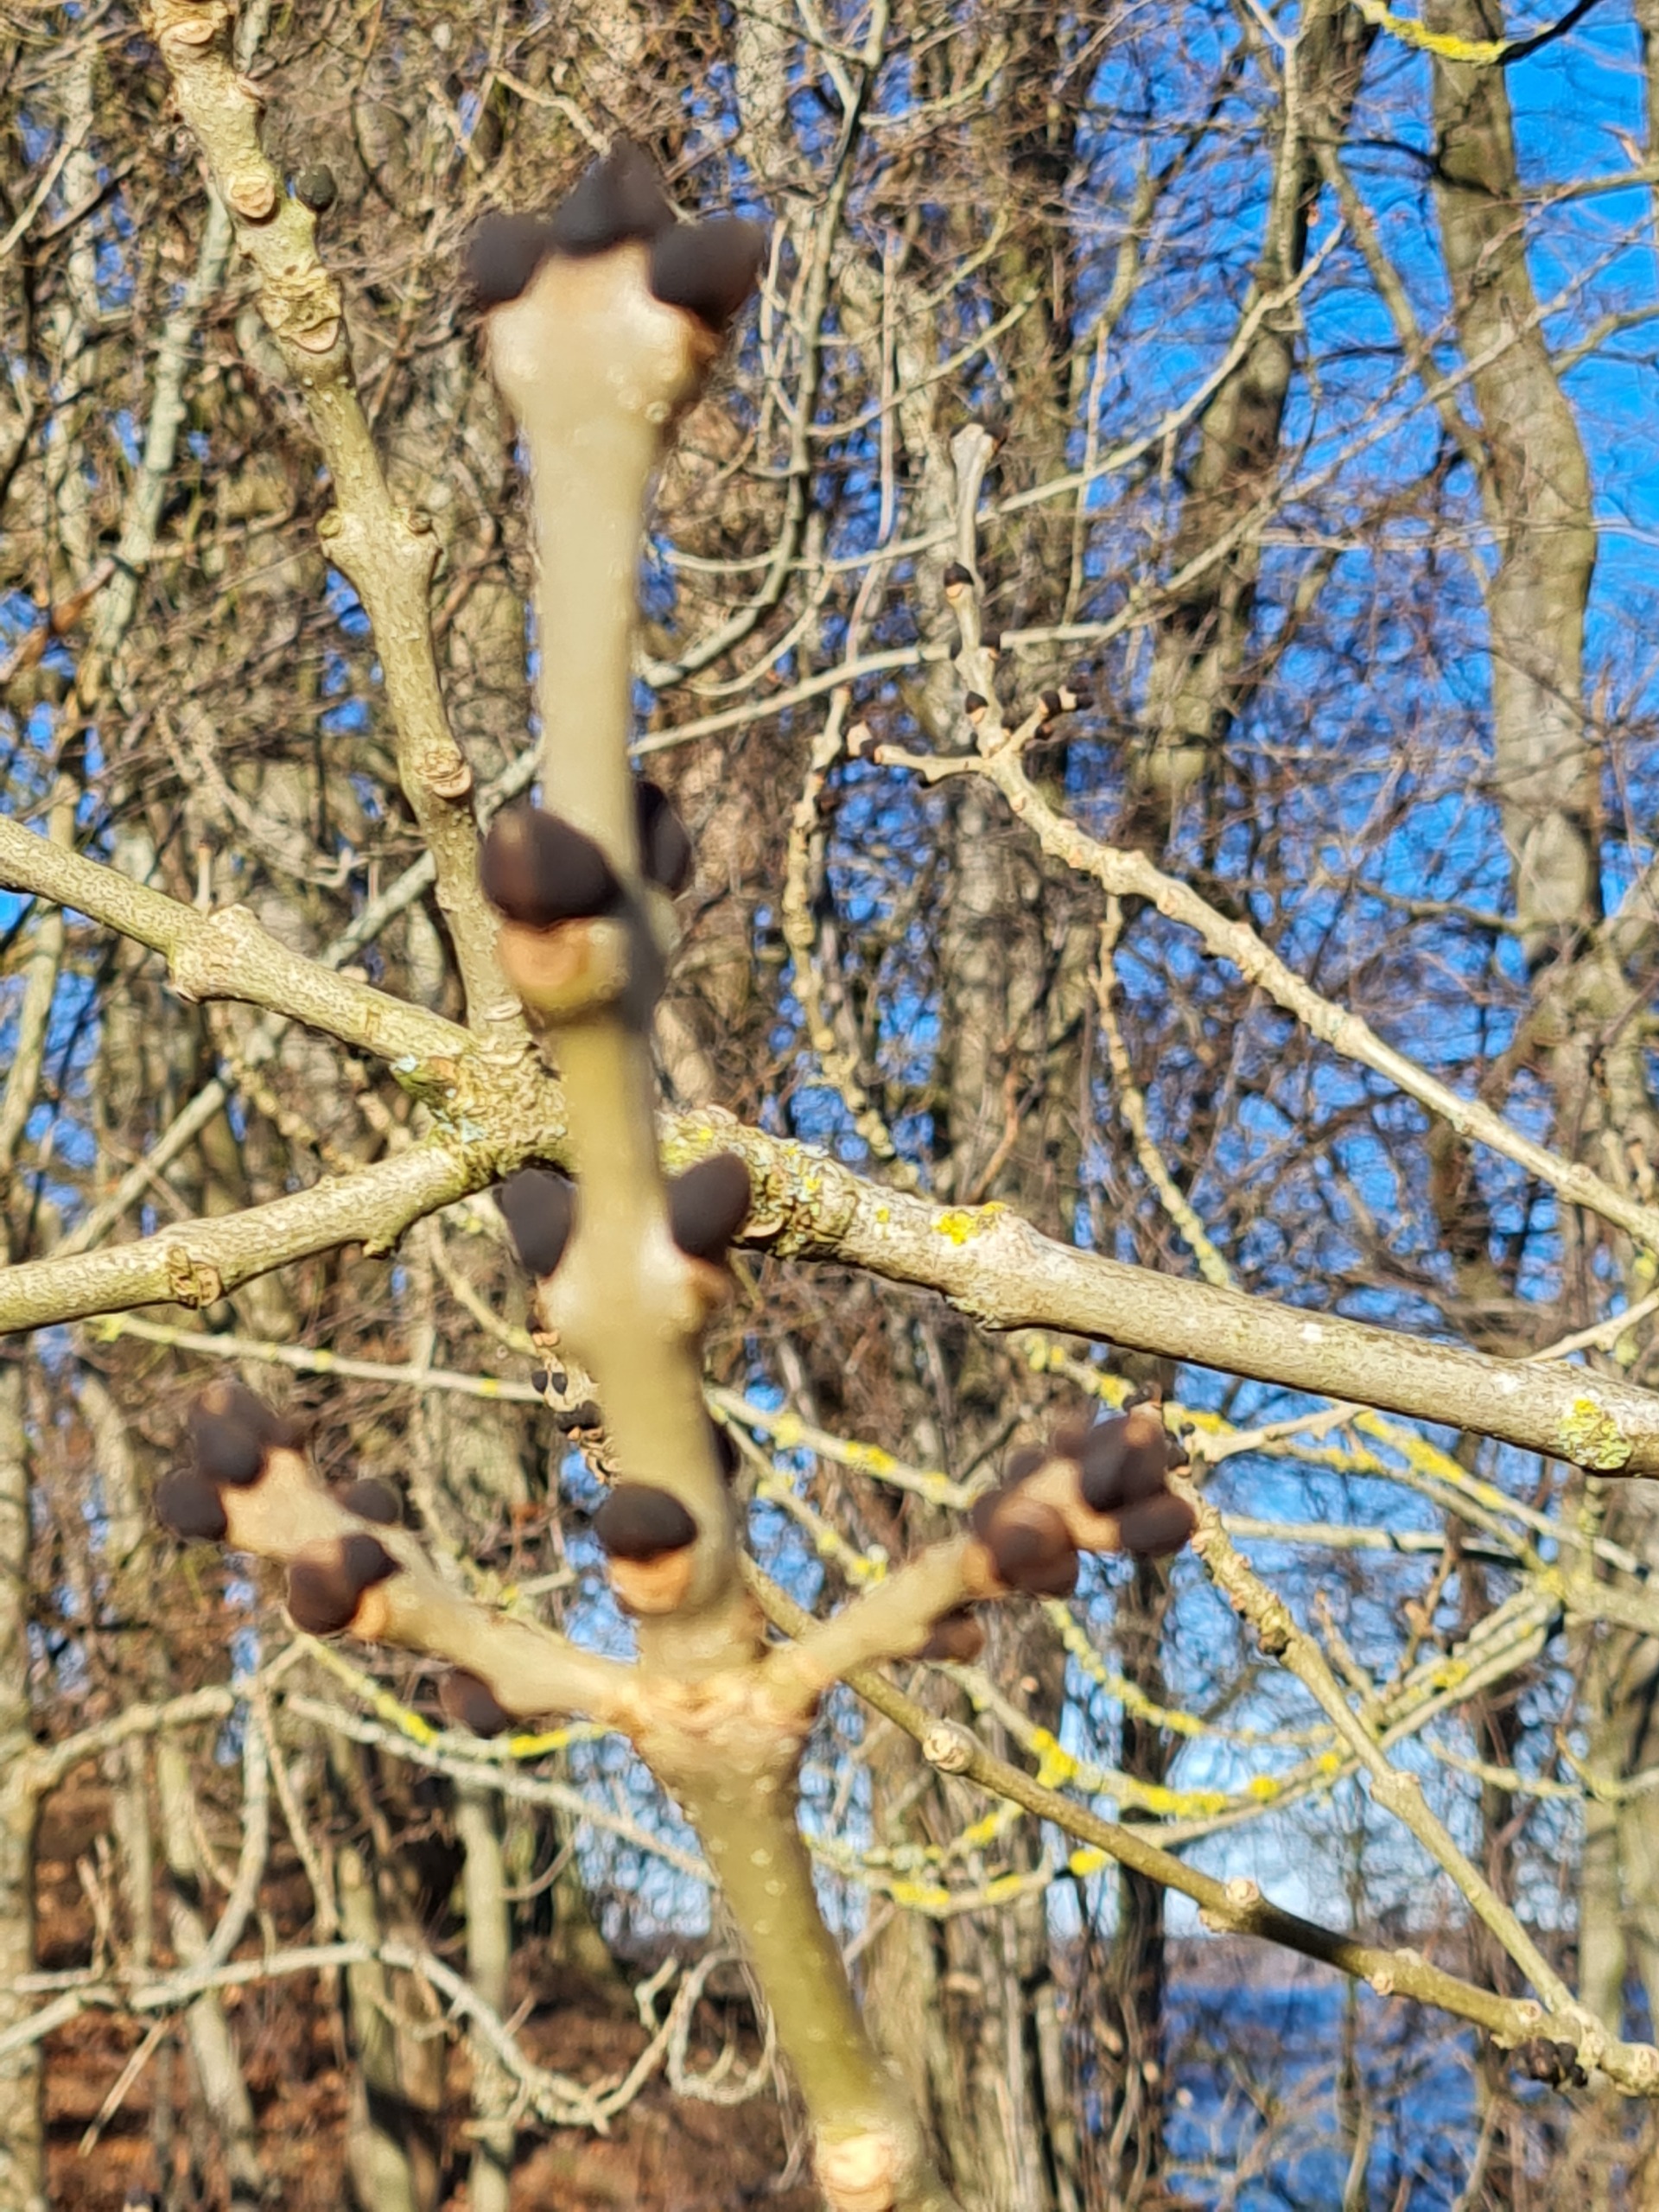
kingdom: Plantae
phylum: Tracheophyta
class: Magnoliopsida
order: Lamiales
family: Oleaceae
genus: Fraxinus
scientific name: Fraxinus excelsior
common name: Ask
